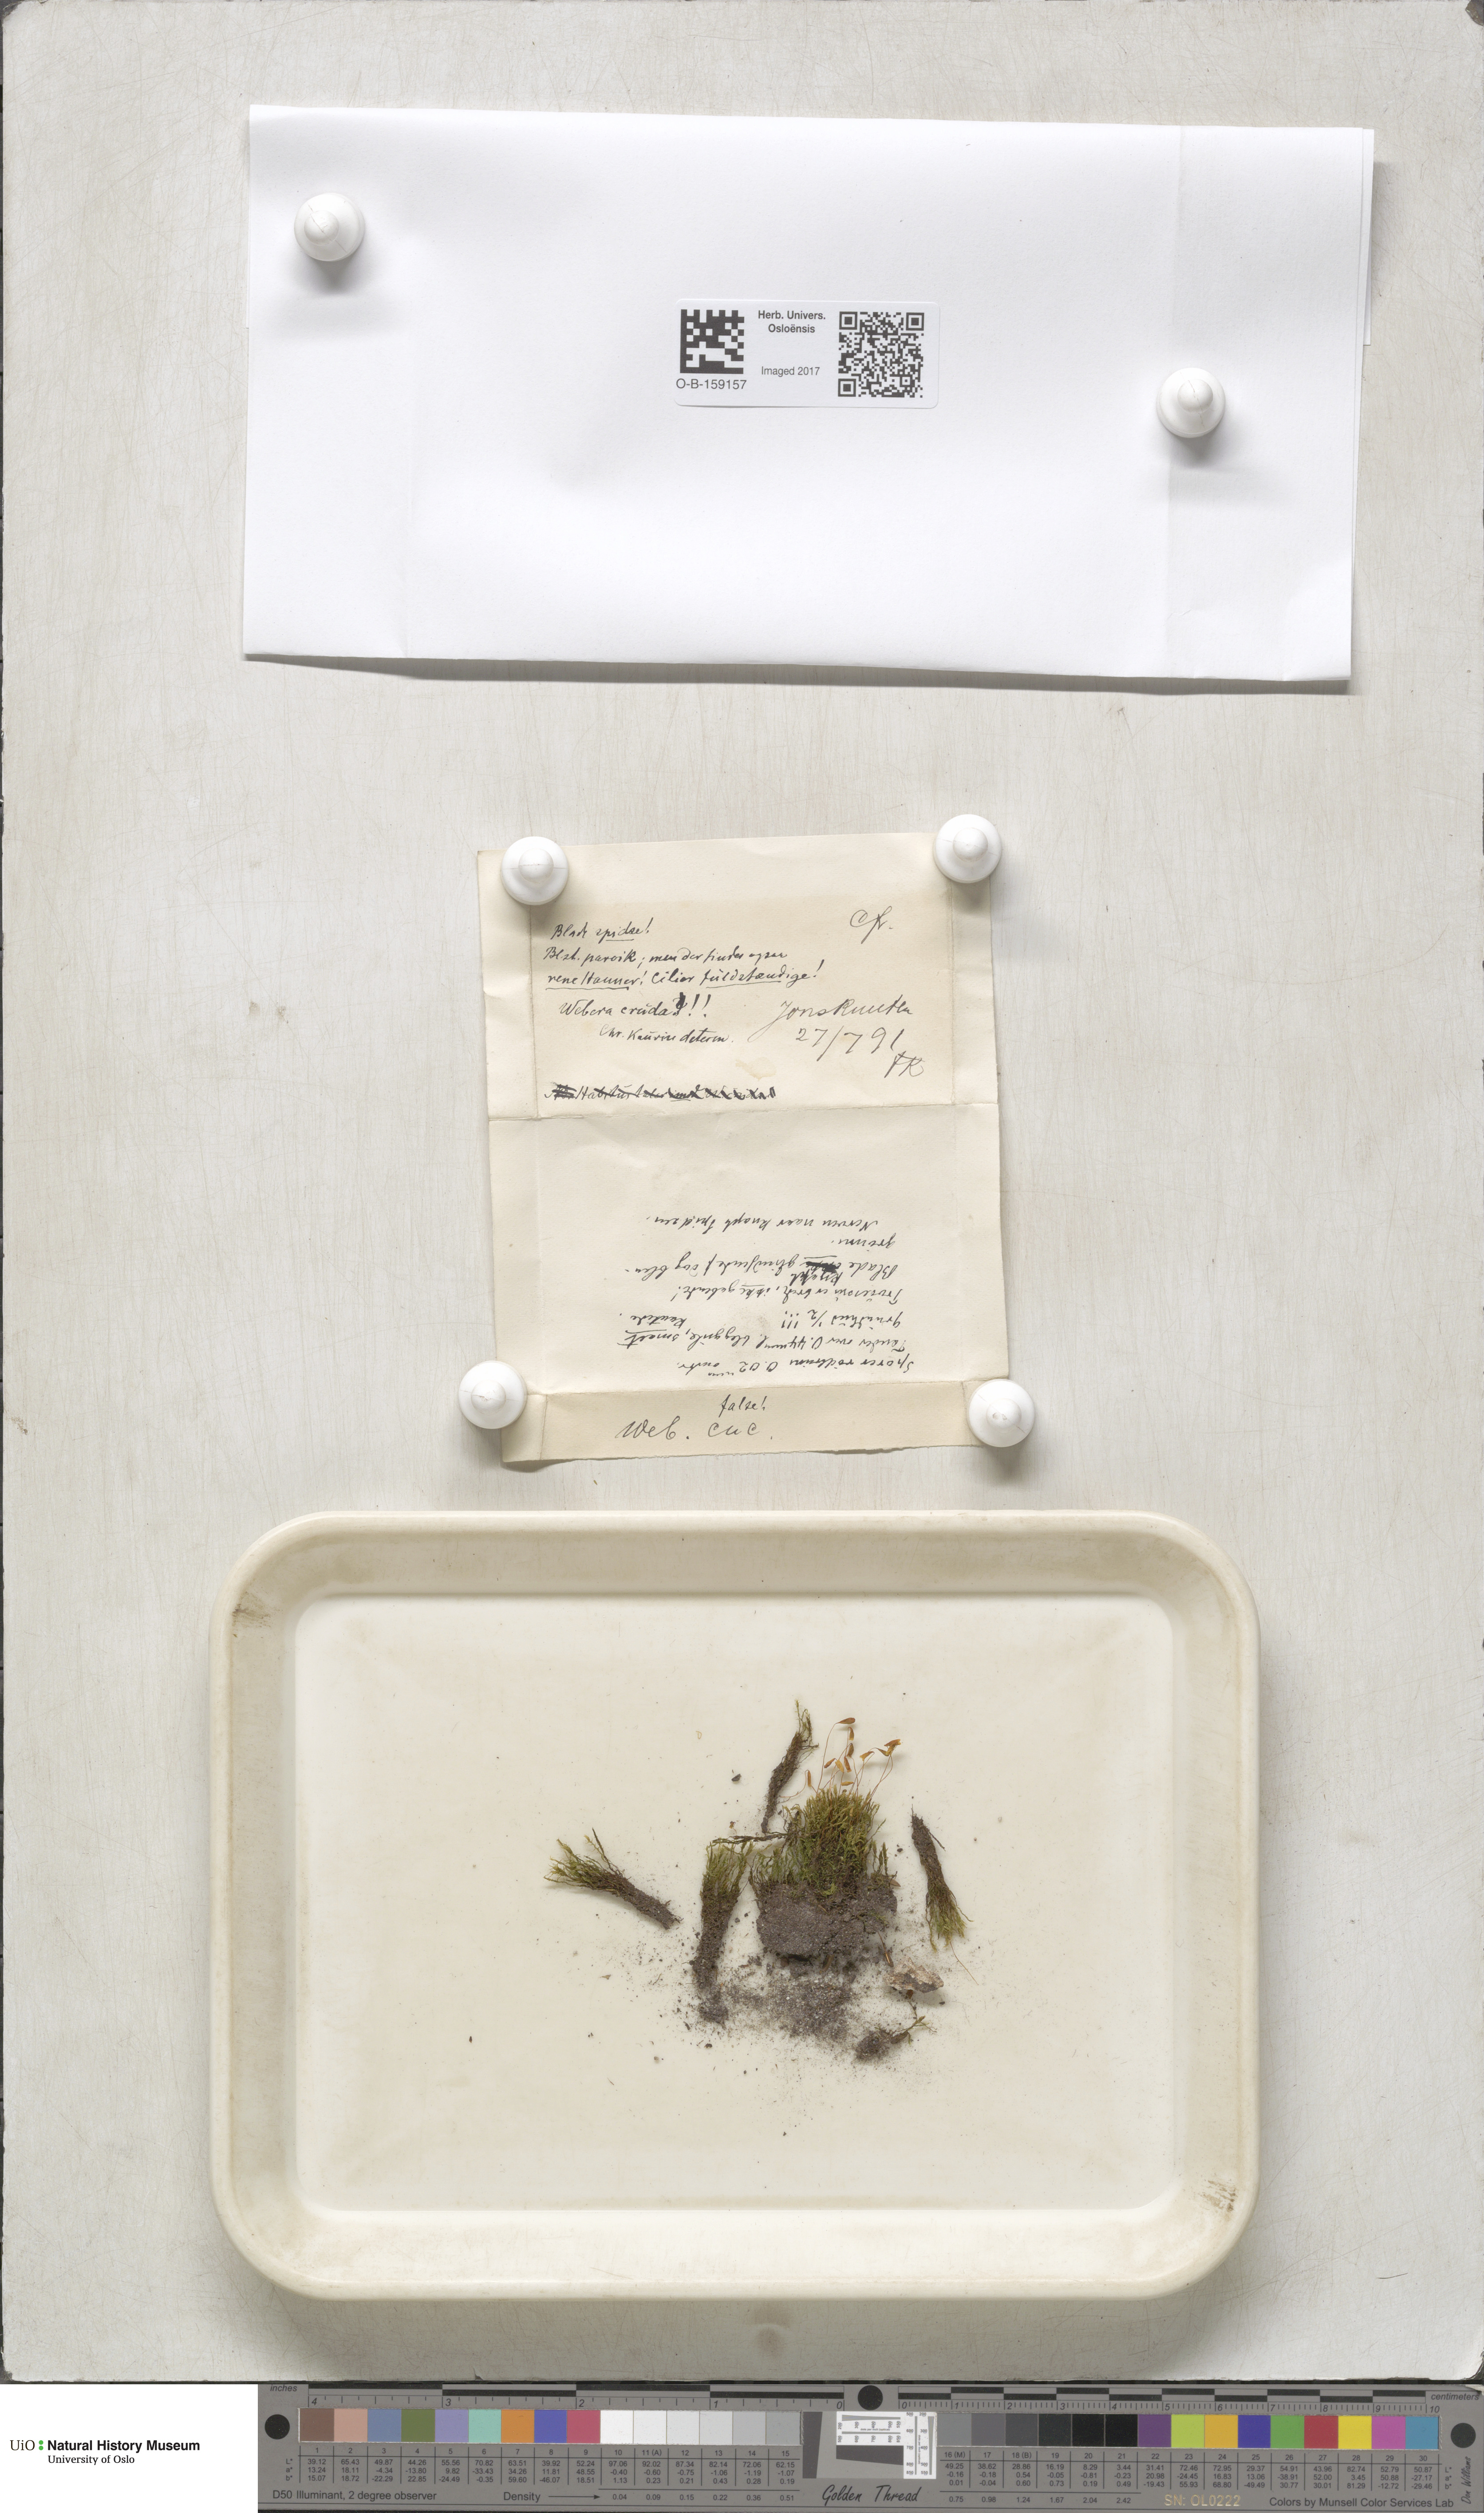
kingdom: Plantae
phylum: Bryophyta
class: Bryopsida
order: Bryales
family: Mniaceae
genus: Pohlia
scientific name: Pohlia cruda
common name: Opal nodding moss
